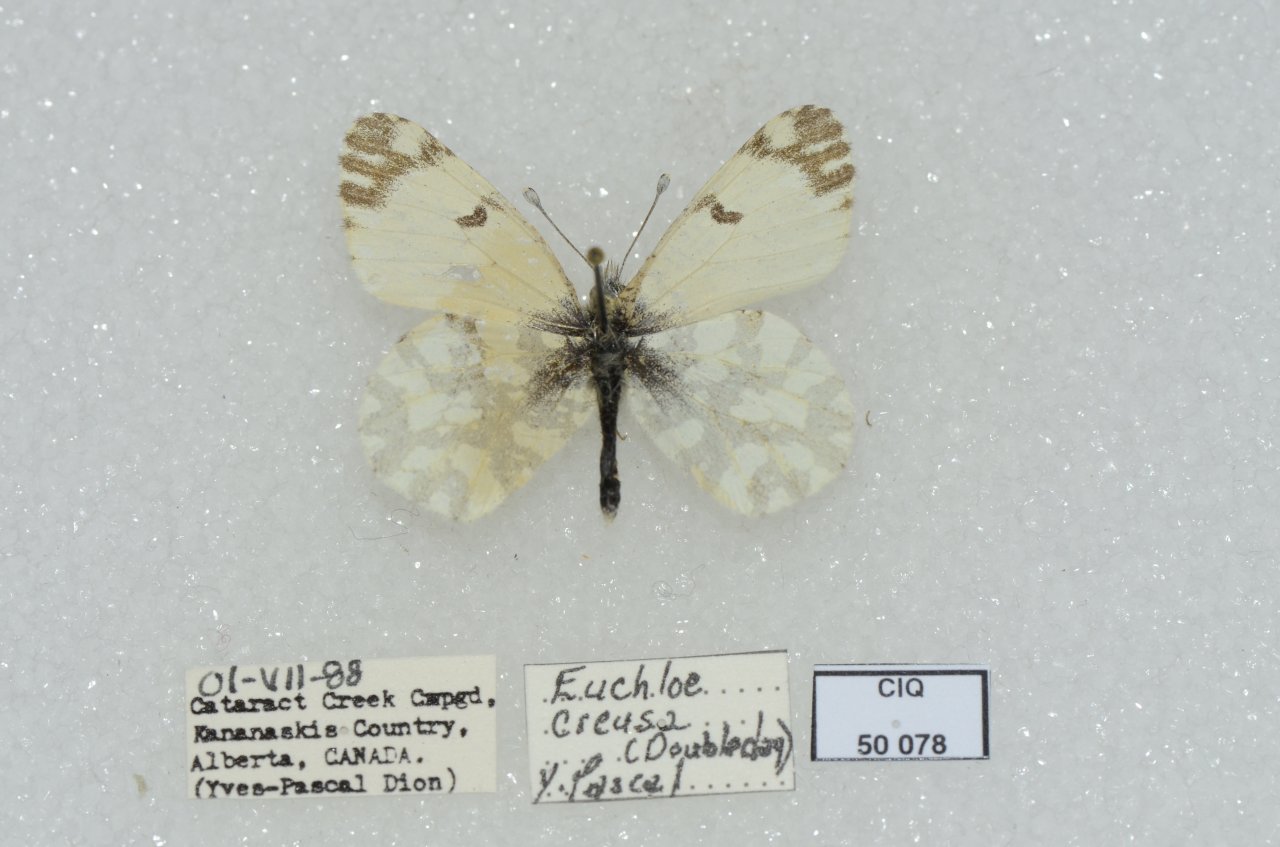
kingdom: Animalia
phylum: Arthropoda
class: Insecta
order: Lepidoptera
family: Pieridae
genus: Euchloe
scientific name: Euchloe creusa
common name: Northern Marble
